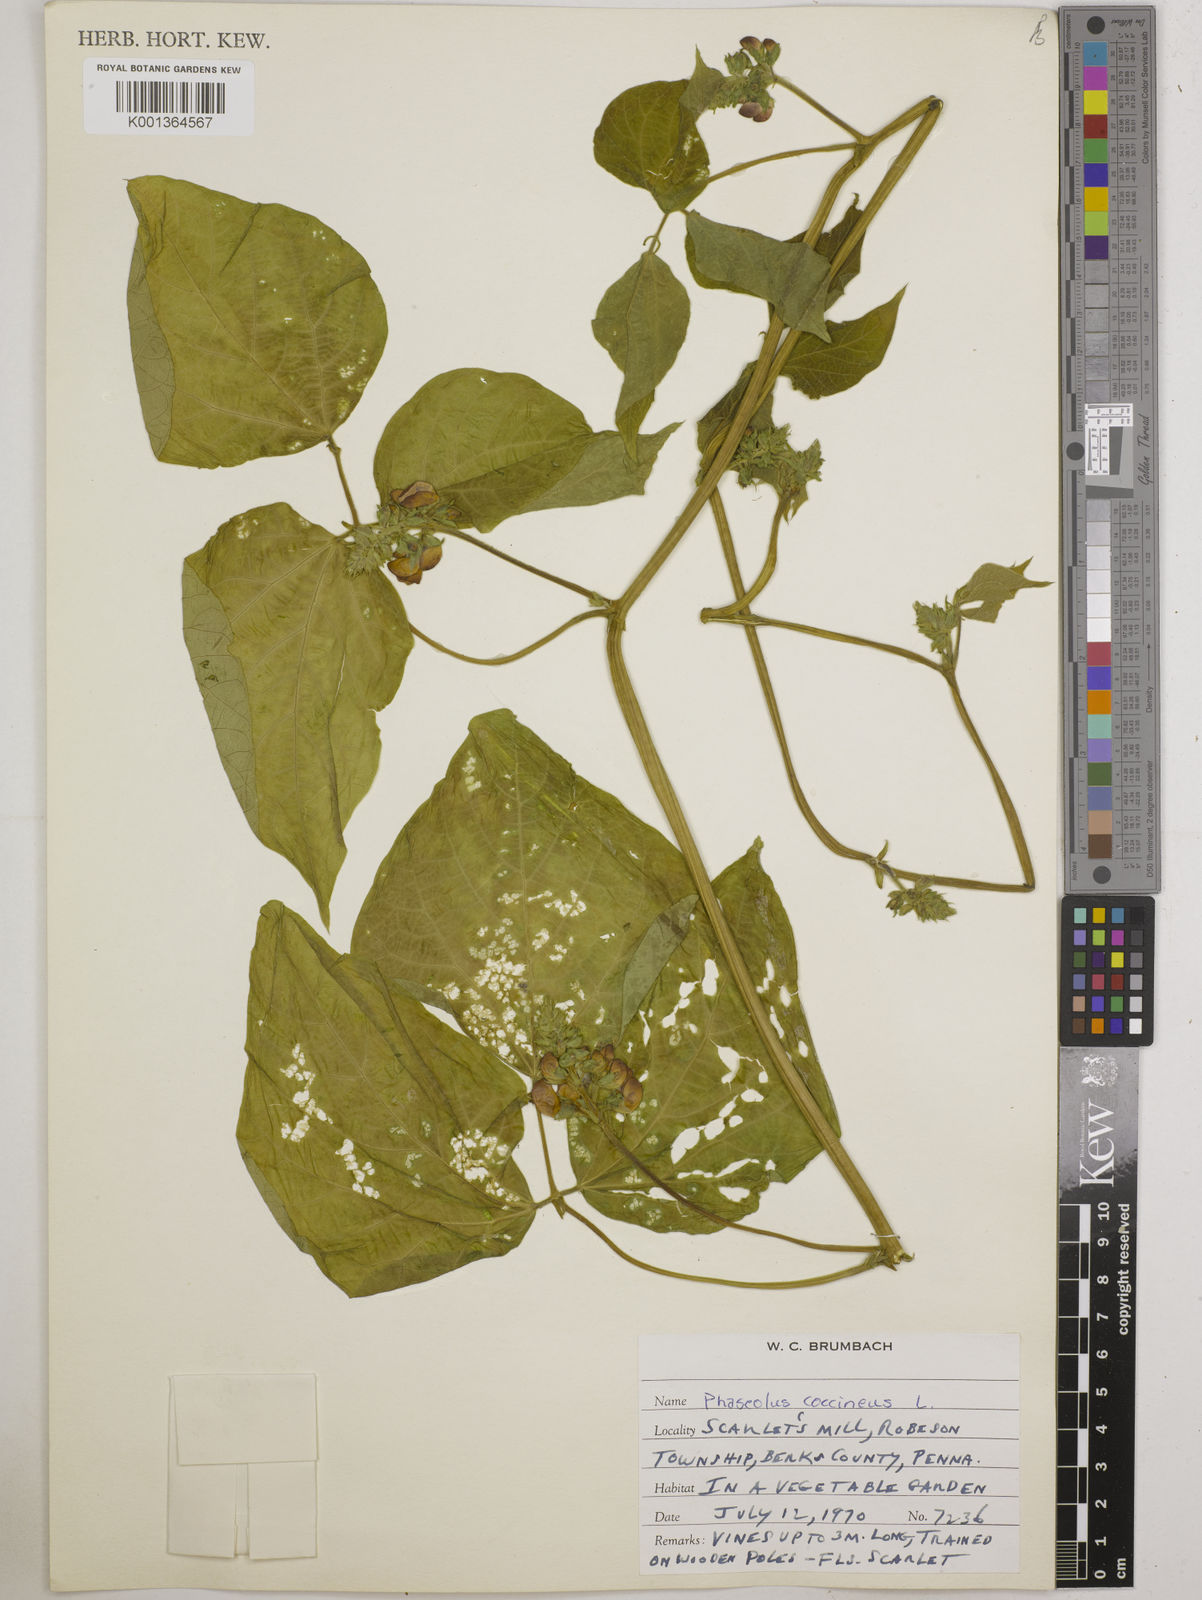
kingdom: Plantae
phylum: Tracheophyta
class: Magnoliopsida
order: Fabales
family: Fabaceae
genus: Phaseolus
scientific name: Phaseolus coccineus
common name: Runner bean
